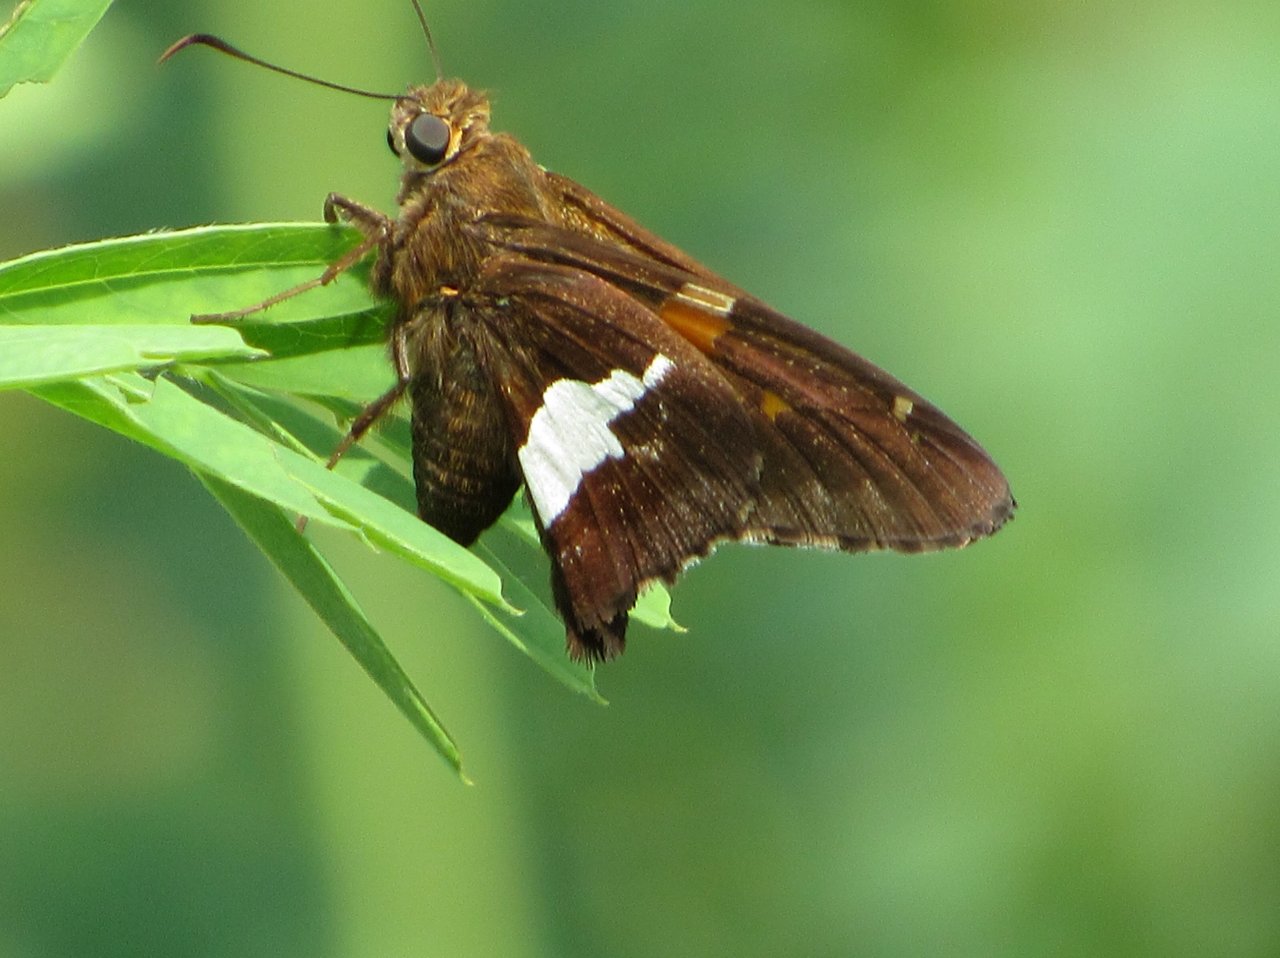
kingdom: Animalia
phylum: Arthropoda
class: Insecta
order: Lepidoptera
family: Hesperiidae
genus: Epargyreus
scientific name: Epargyreus clarus
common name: Silver-spotted Skipper
